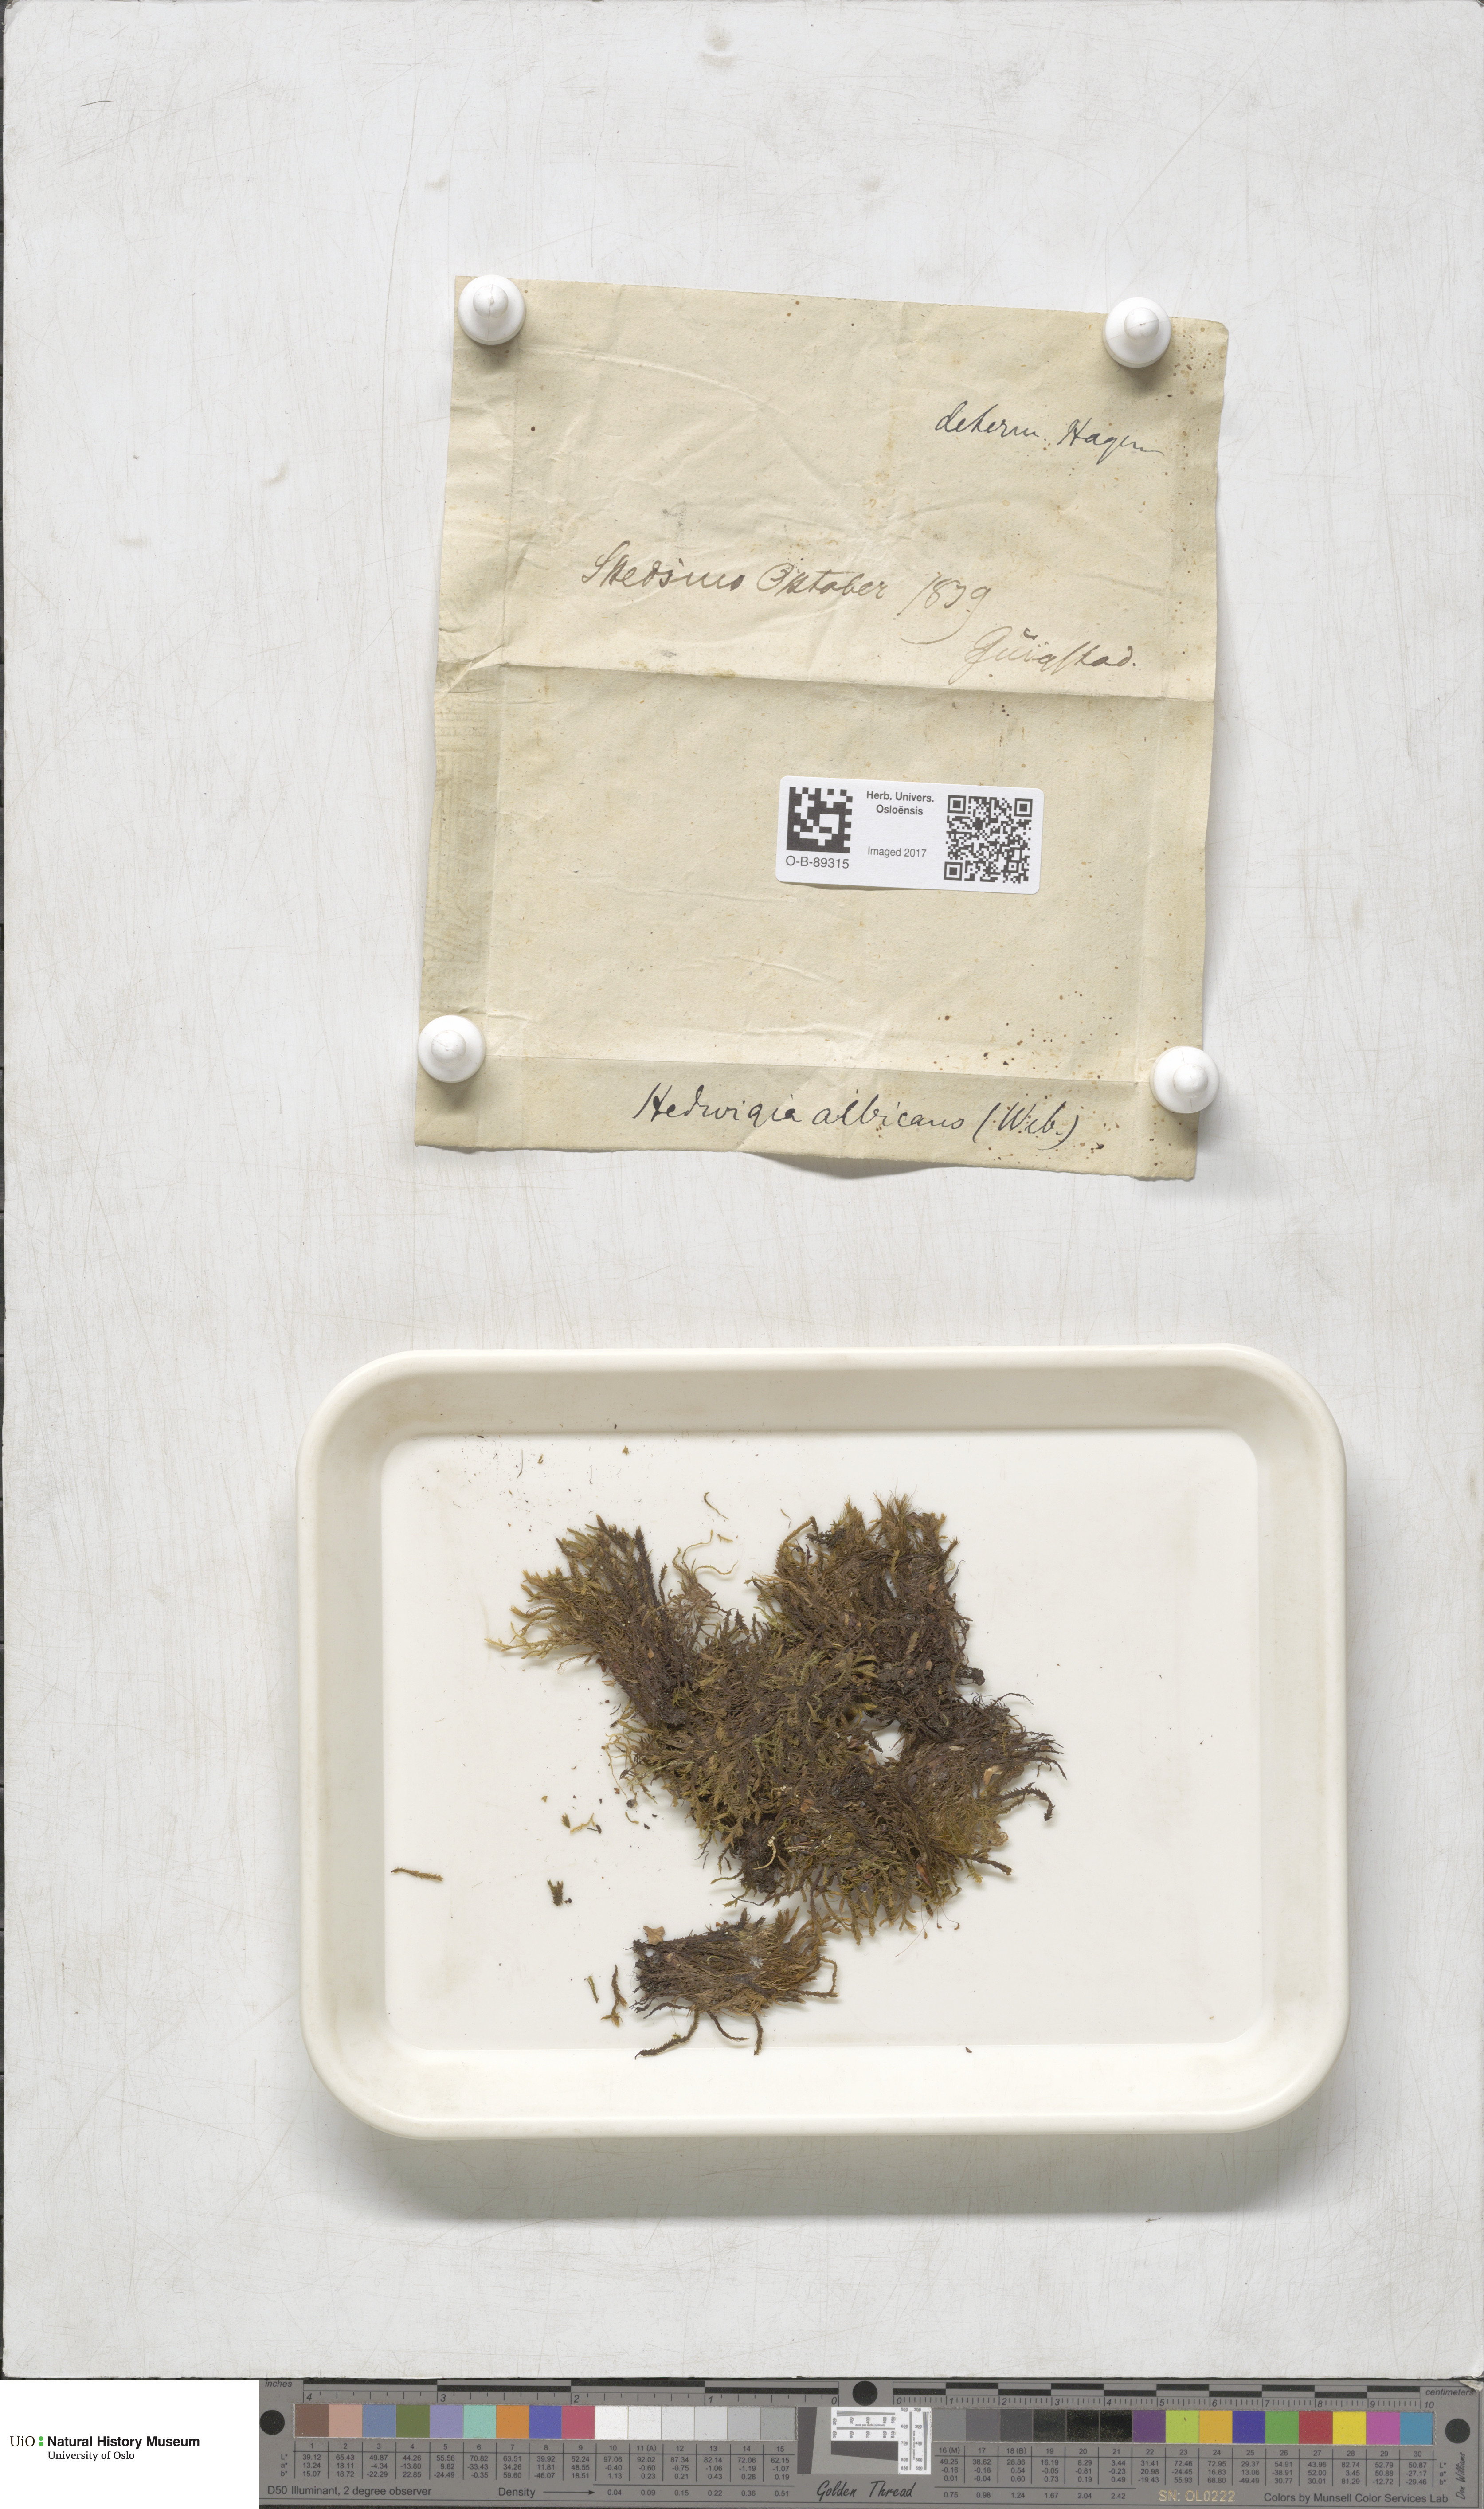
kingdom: Plantae
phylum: Bryophyta
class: Bryopsida
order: Hedwigiales
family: Hedwigiaceae
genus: Hedwigia
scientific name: Hedwigia ciliata
